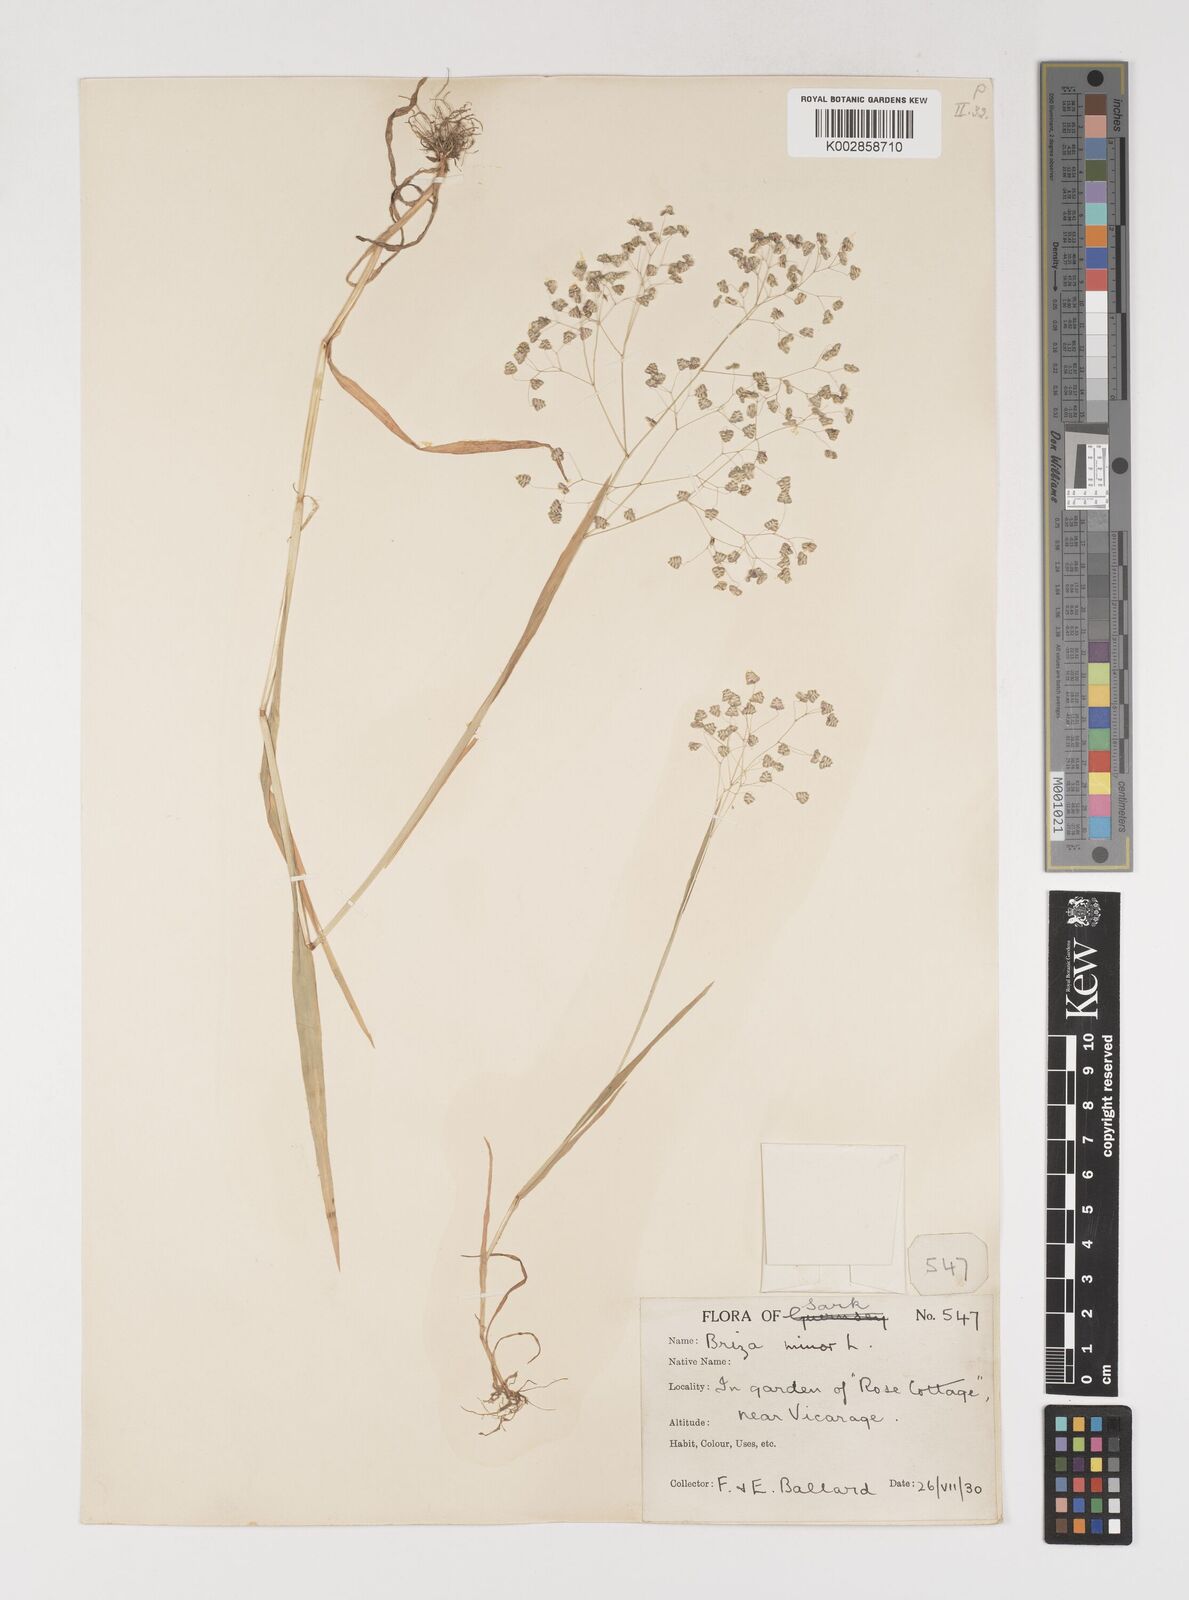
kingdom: Plantae
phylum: Tracheophyta
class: Liliopsida
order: Poales
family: Poaceae
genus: Briza
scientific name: Briza minor
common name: Lesser quaking-grass
